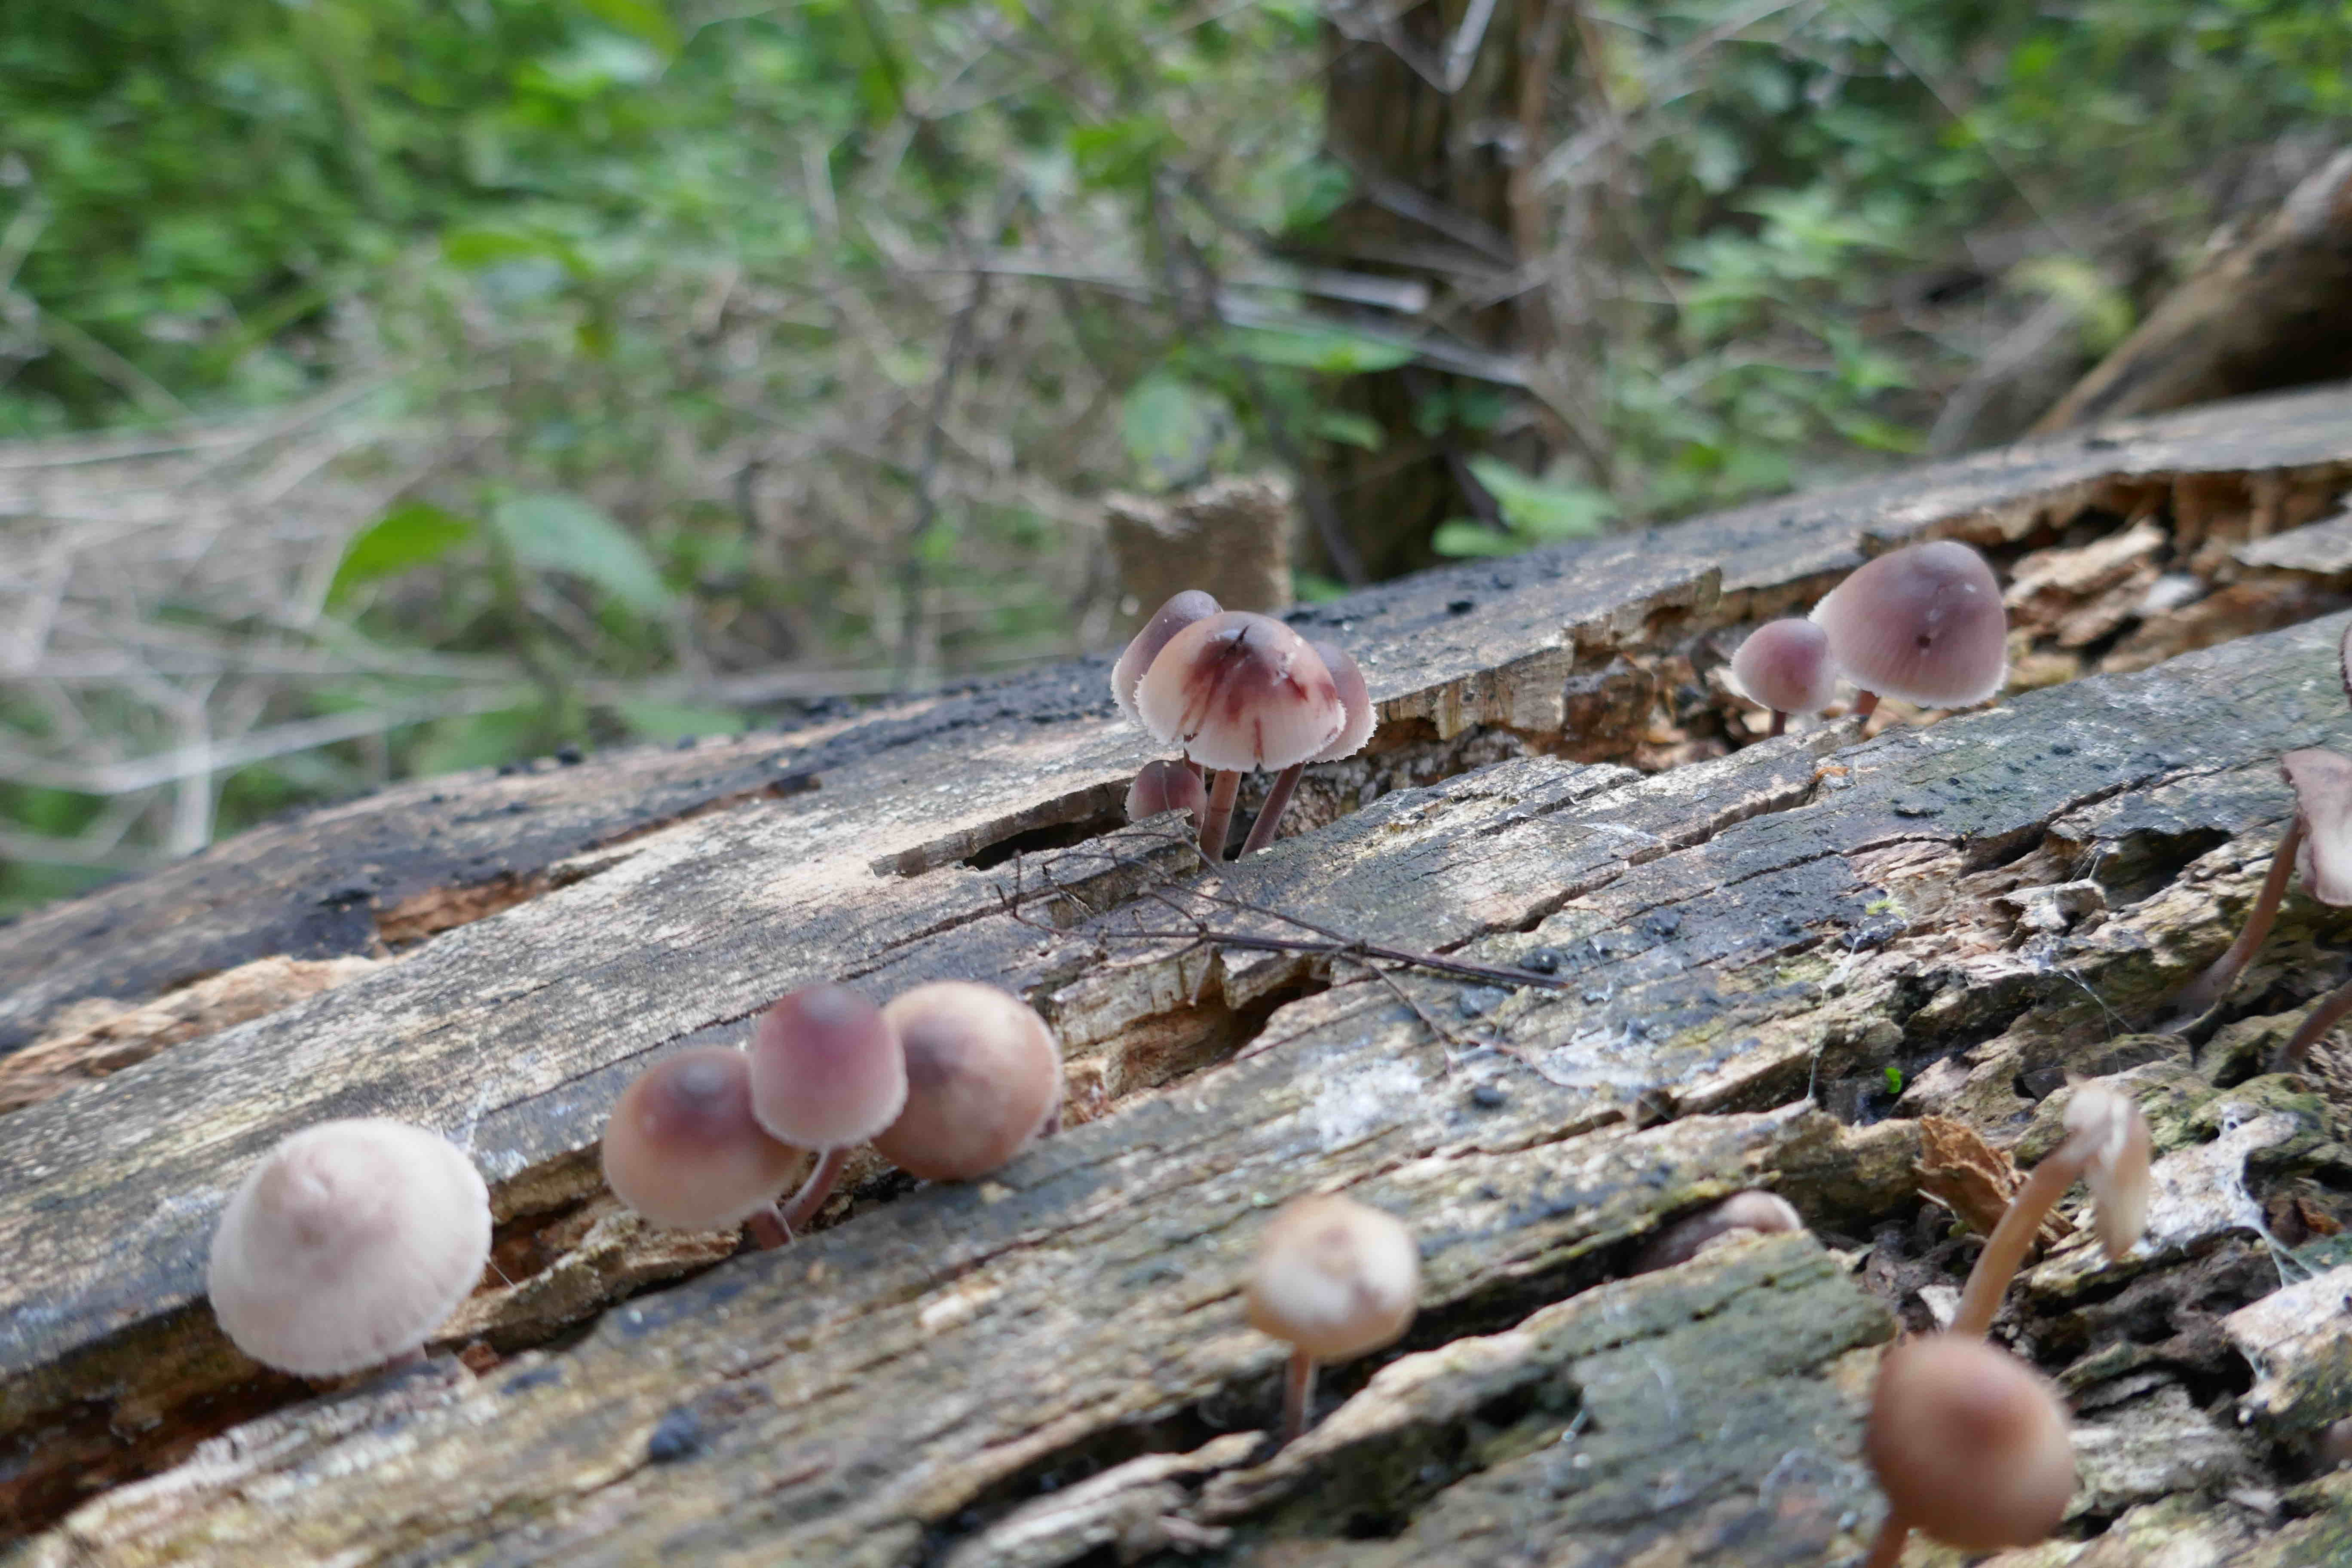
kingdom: Fungi
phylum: Basidiomycota
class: Agaricomycetes
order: Agaricales
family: Mycenaceae
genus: Mycena
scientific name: Mycena haematopus
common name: blødende huesvamp
